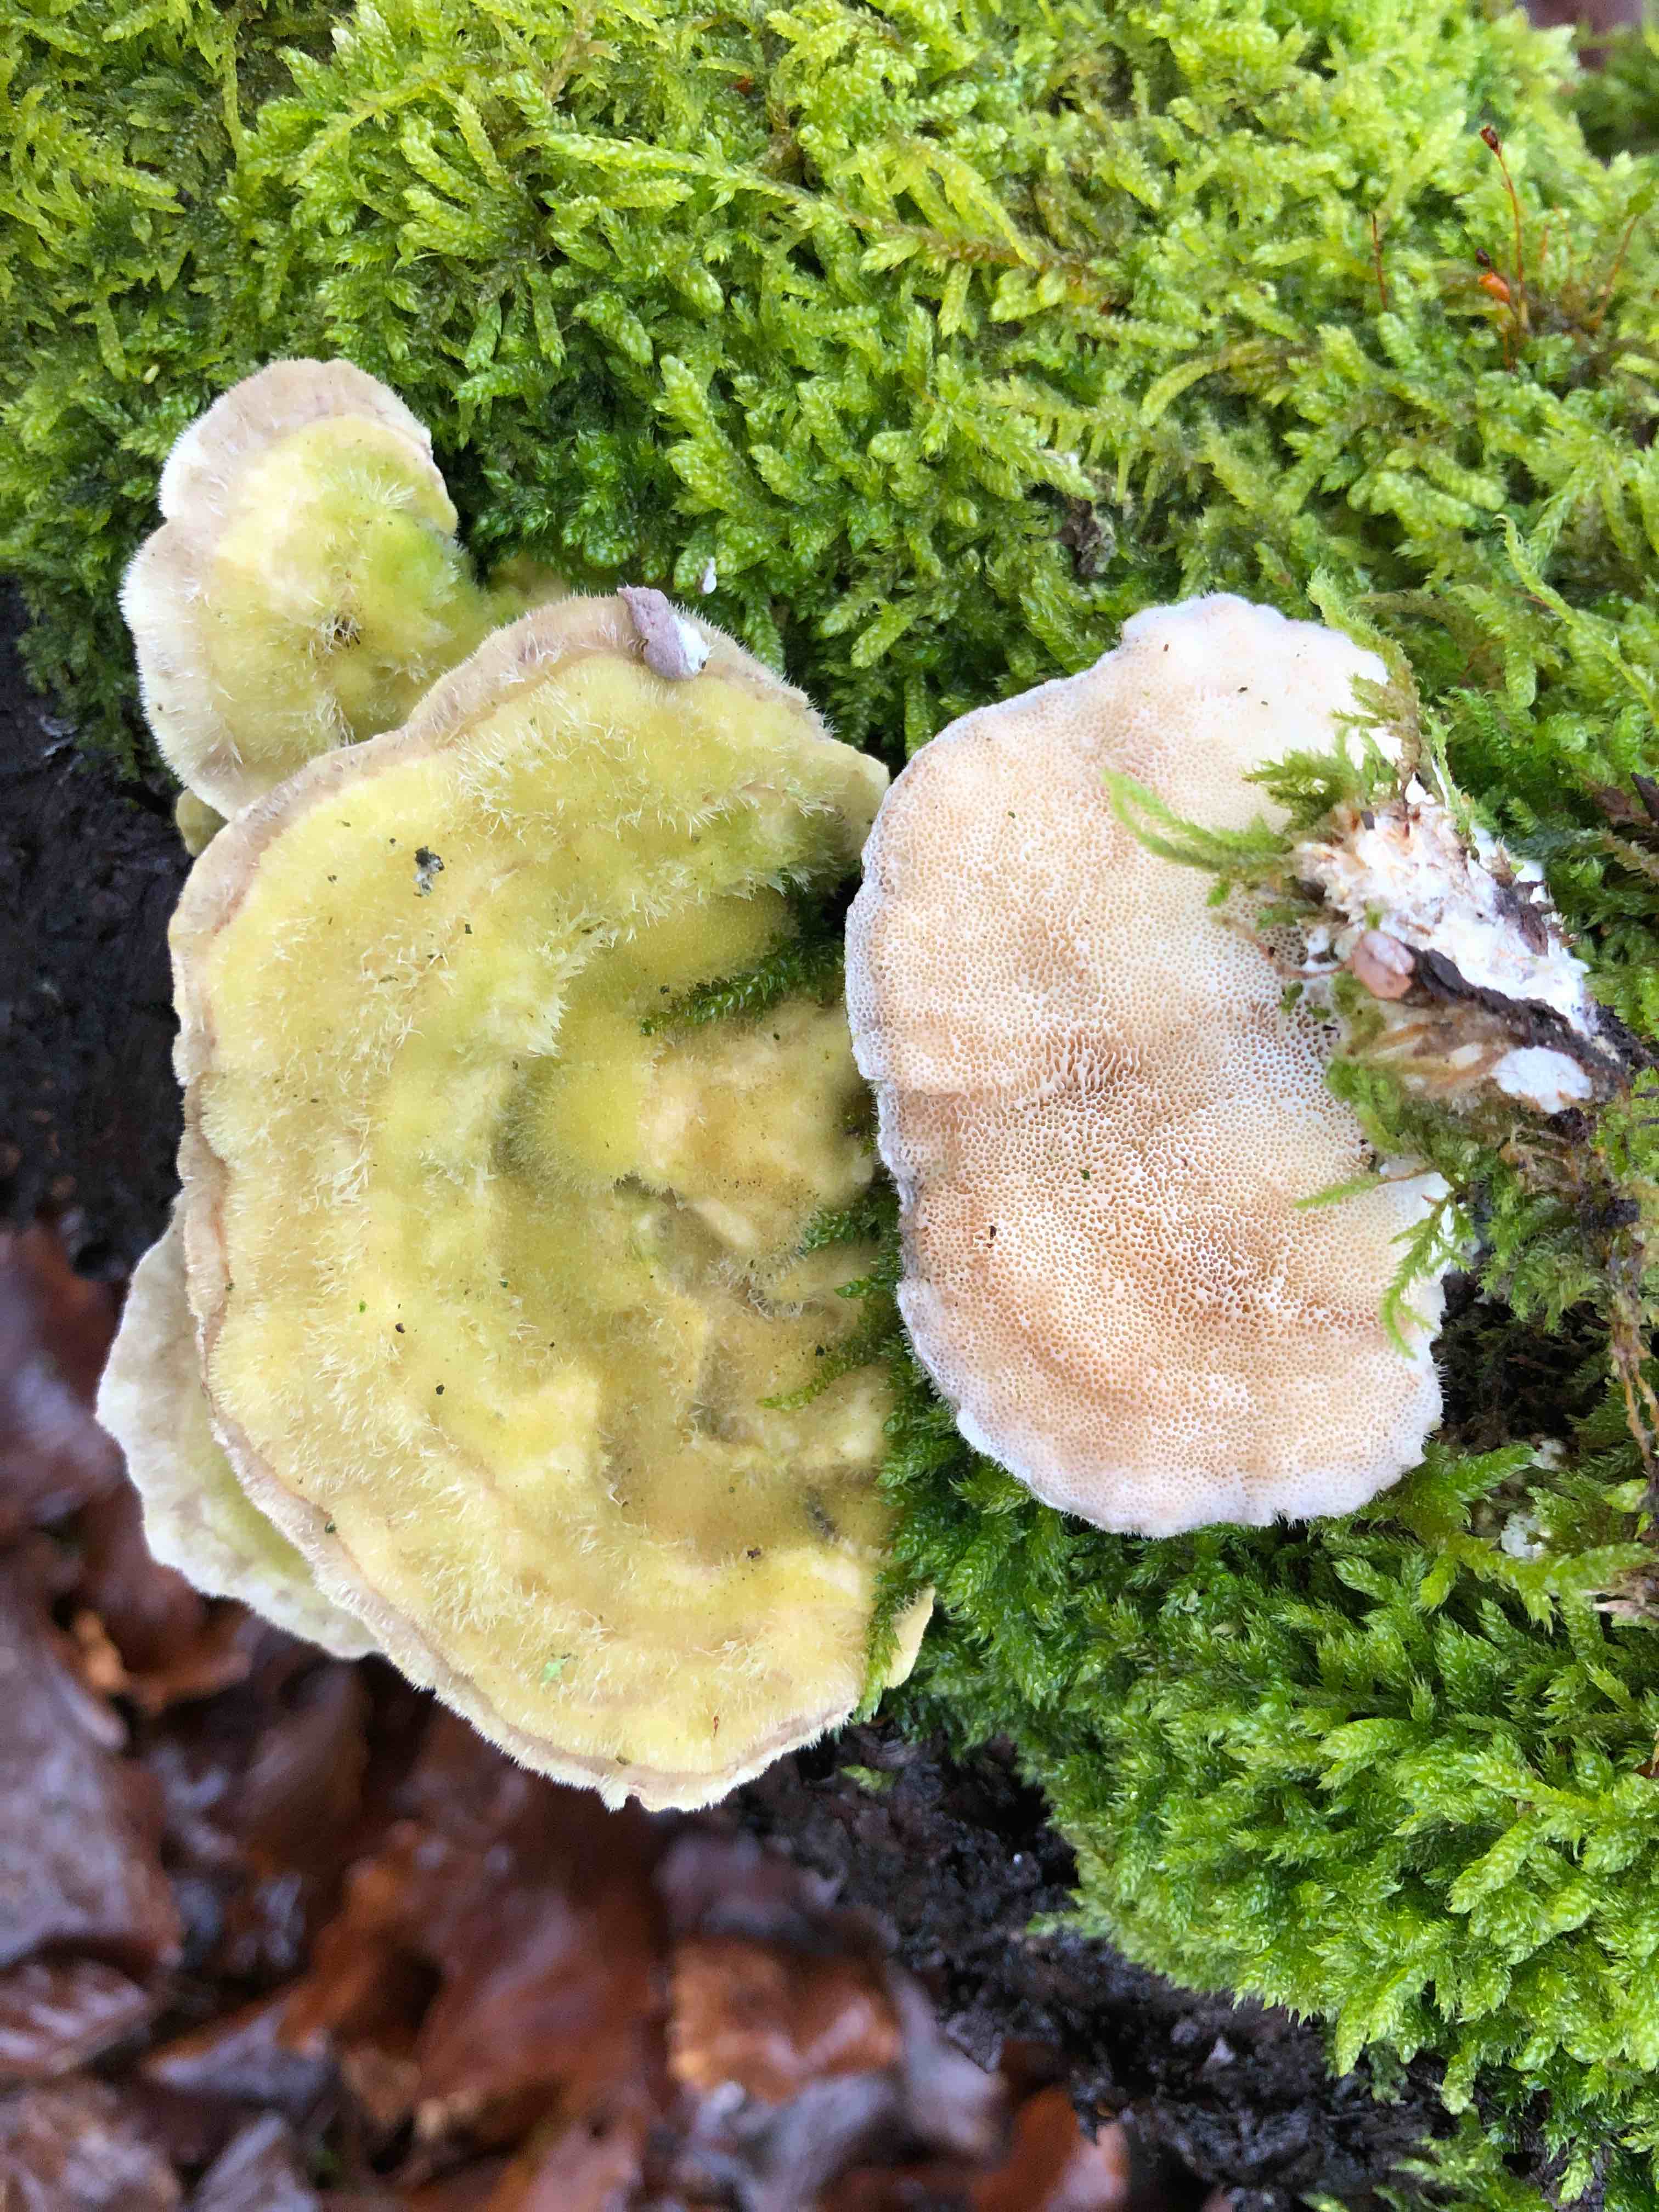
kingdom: Fungi
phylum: Basidiomycota
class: Agaricomycetes
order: Polyporales
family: Polyporaceae
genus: Trametes
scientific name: Trametes hirsuta
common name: håret læderporesvamp
